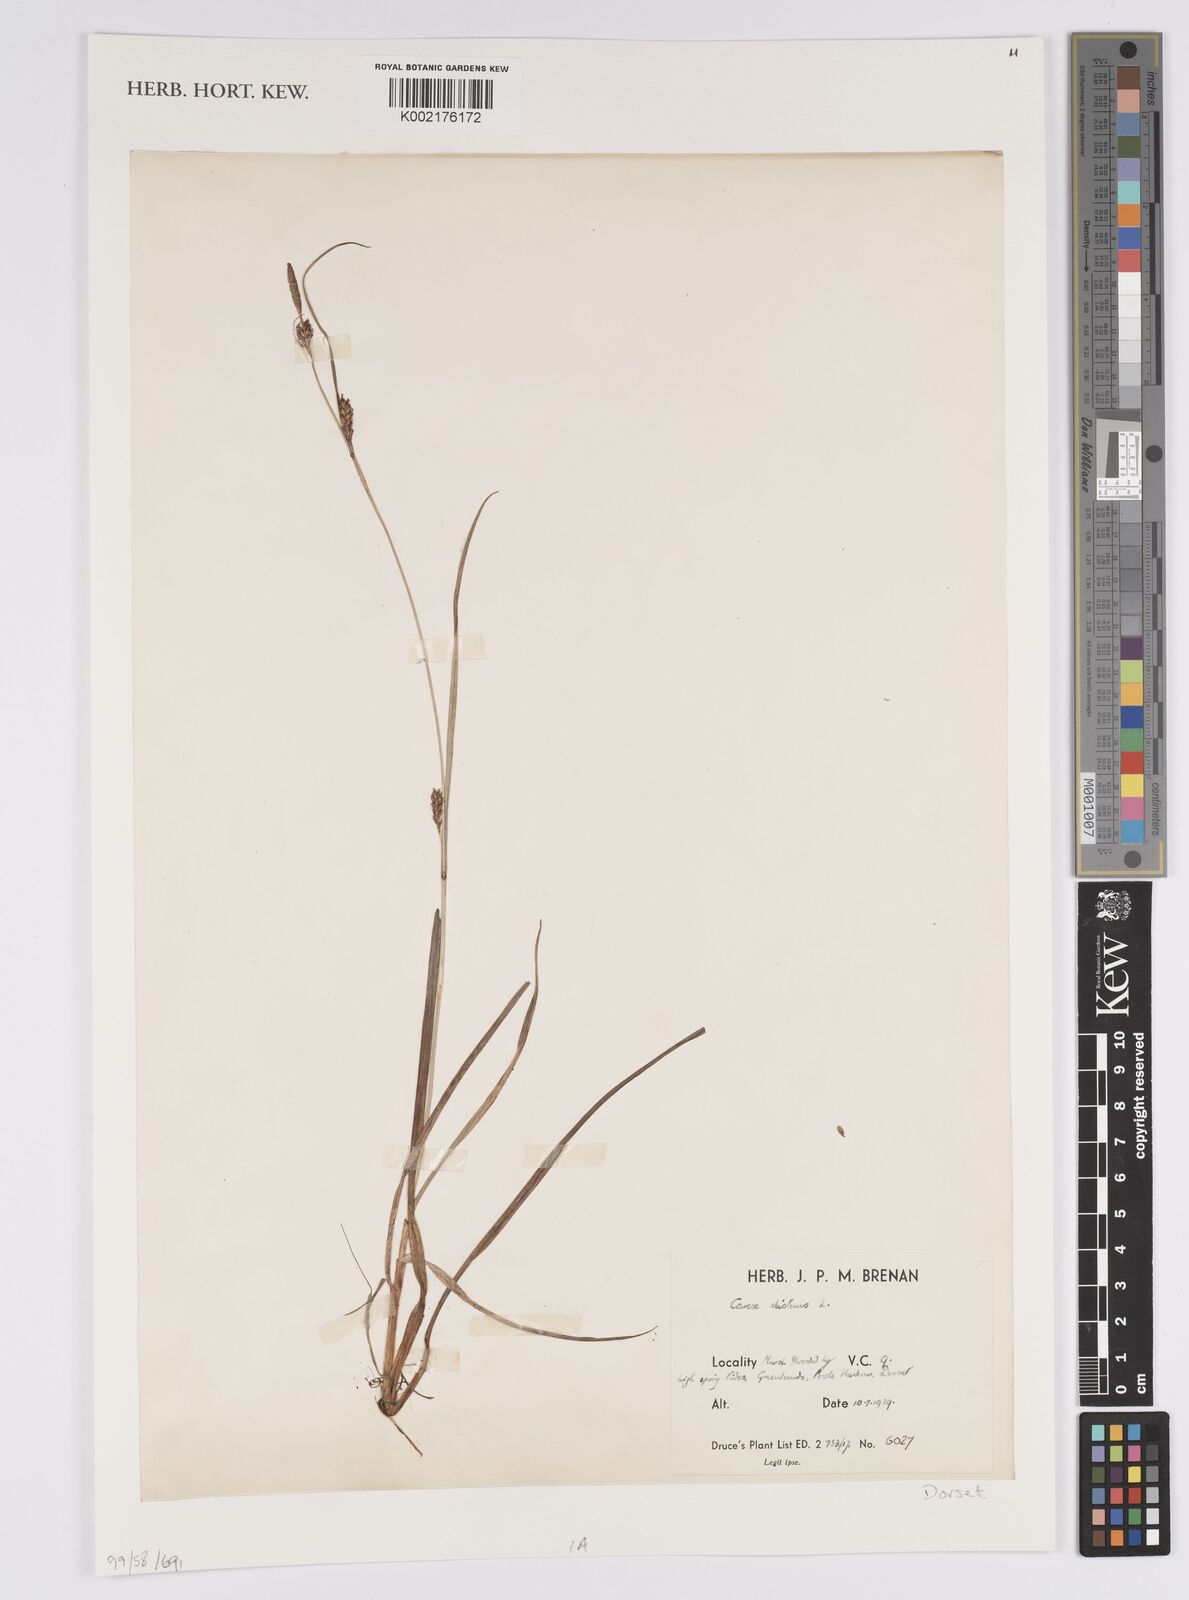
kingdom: Plantae
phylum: Tracheophyta
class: Liliopsida
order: Poales
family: Cyperaceae
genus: Carex
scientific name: Carex distans
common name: Distant sedge
